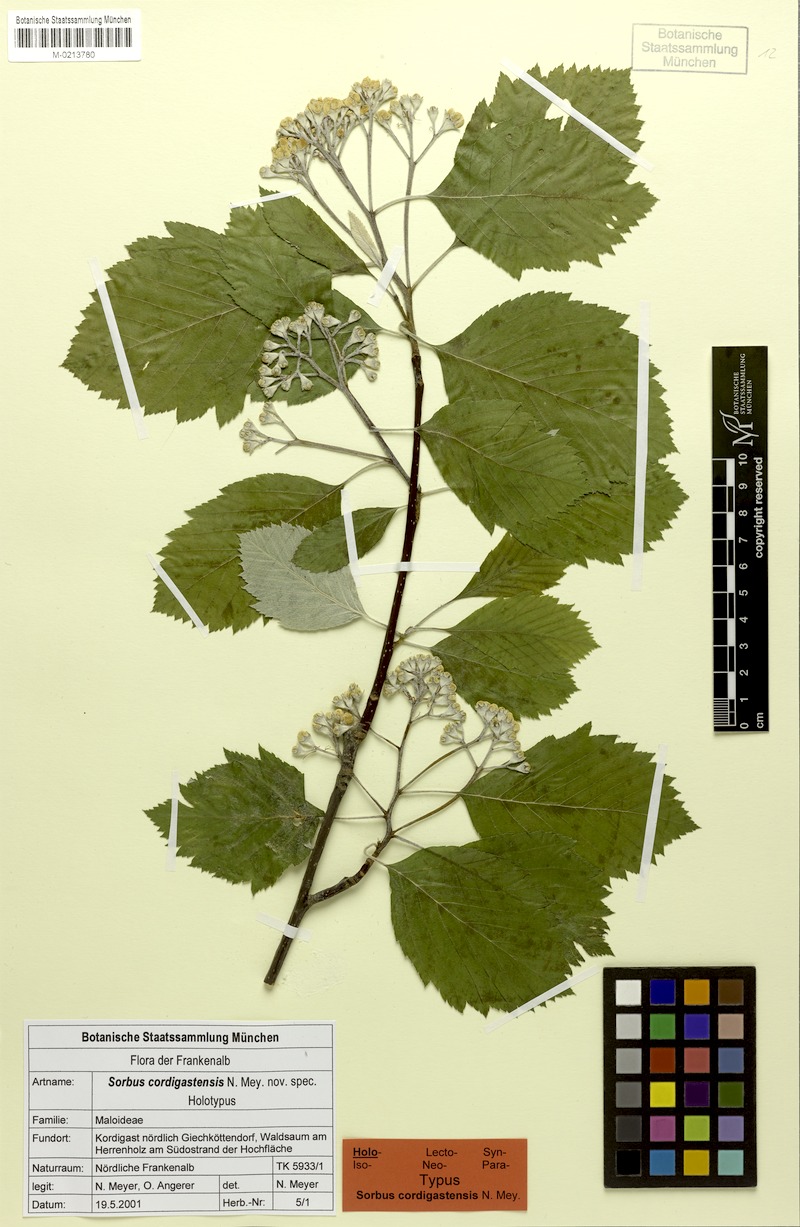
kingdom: Plantae
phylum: Tracheophyta
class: Magnoliopsida
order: Rosales
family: Rosaceae
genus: Karpatiosorbus
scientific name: Karpatiosorbus cordigastensis
